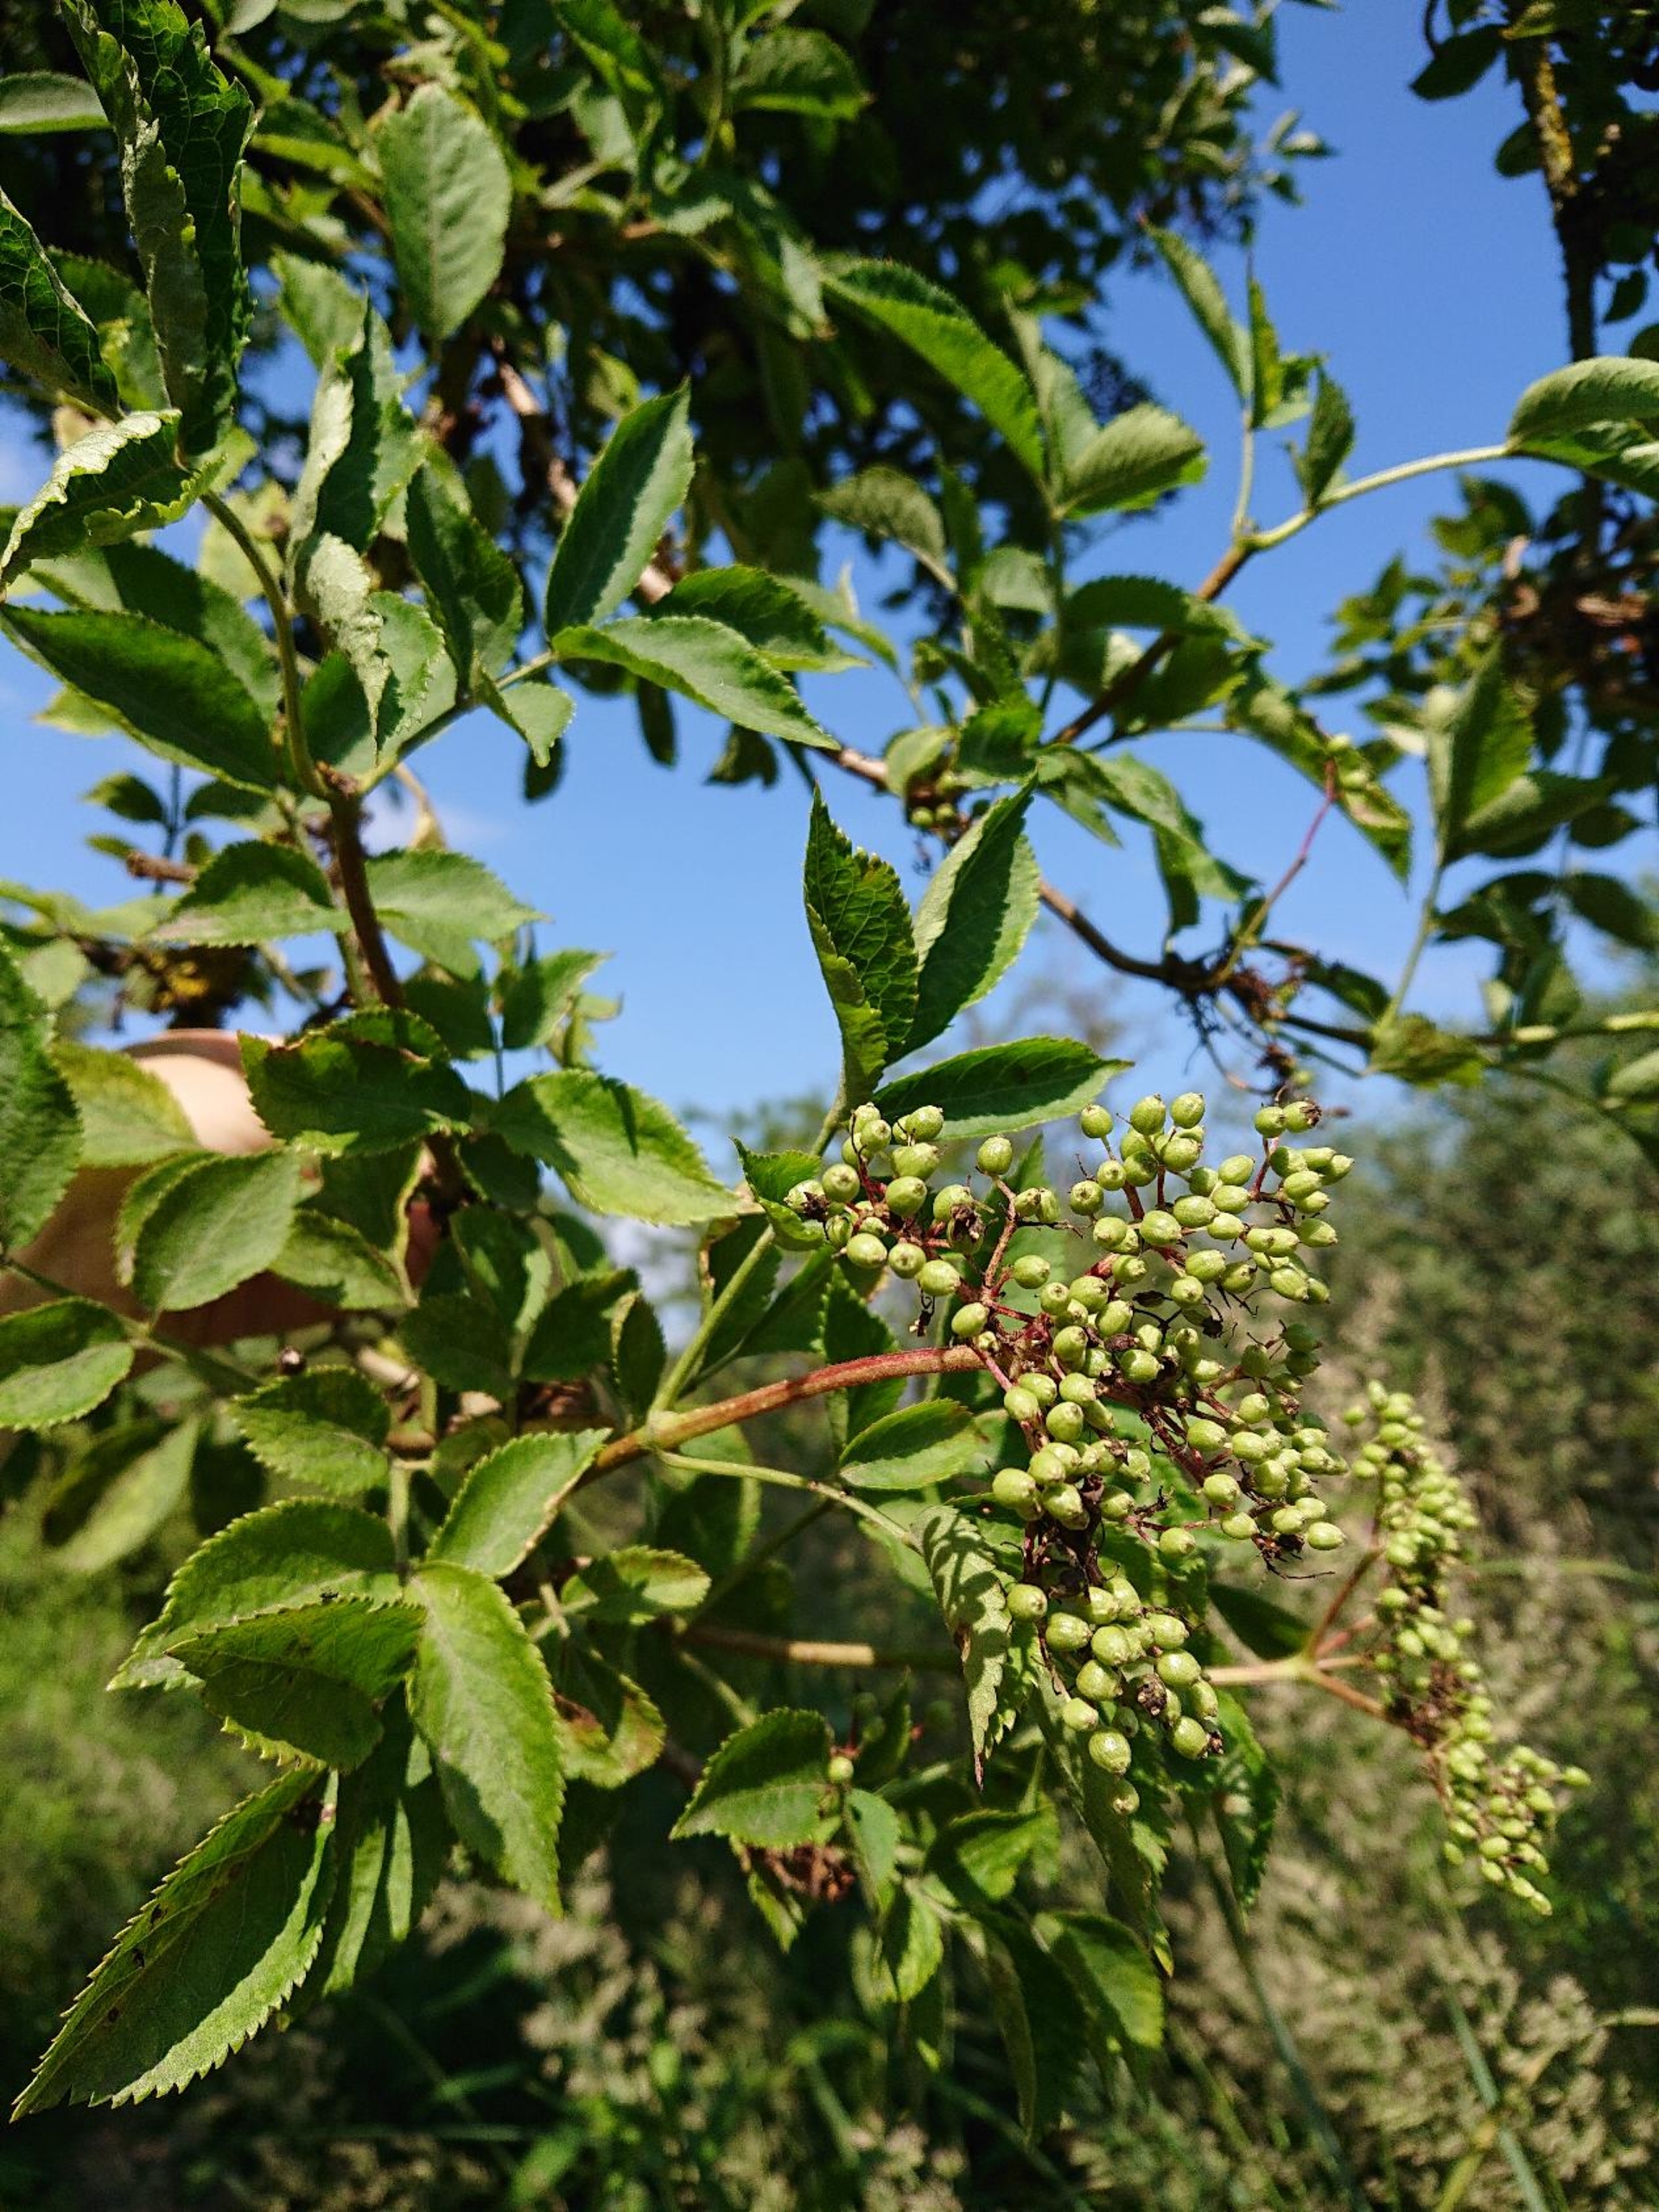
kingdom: Plantae
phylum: Tracheophyta
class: Magnoliopsida
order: Dipsacales
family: Viburnaceae
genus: Sambucus
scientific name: Sambucus nigra
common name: Almindelig hyld
